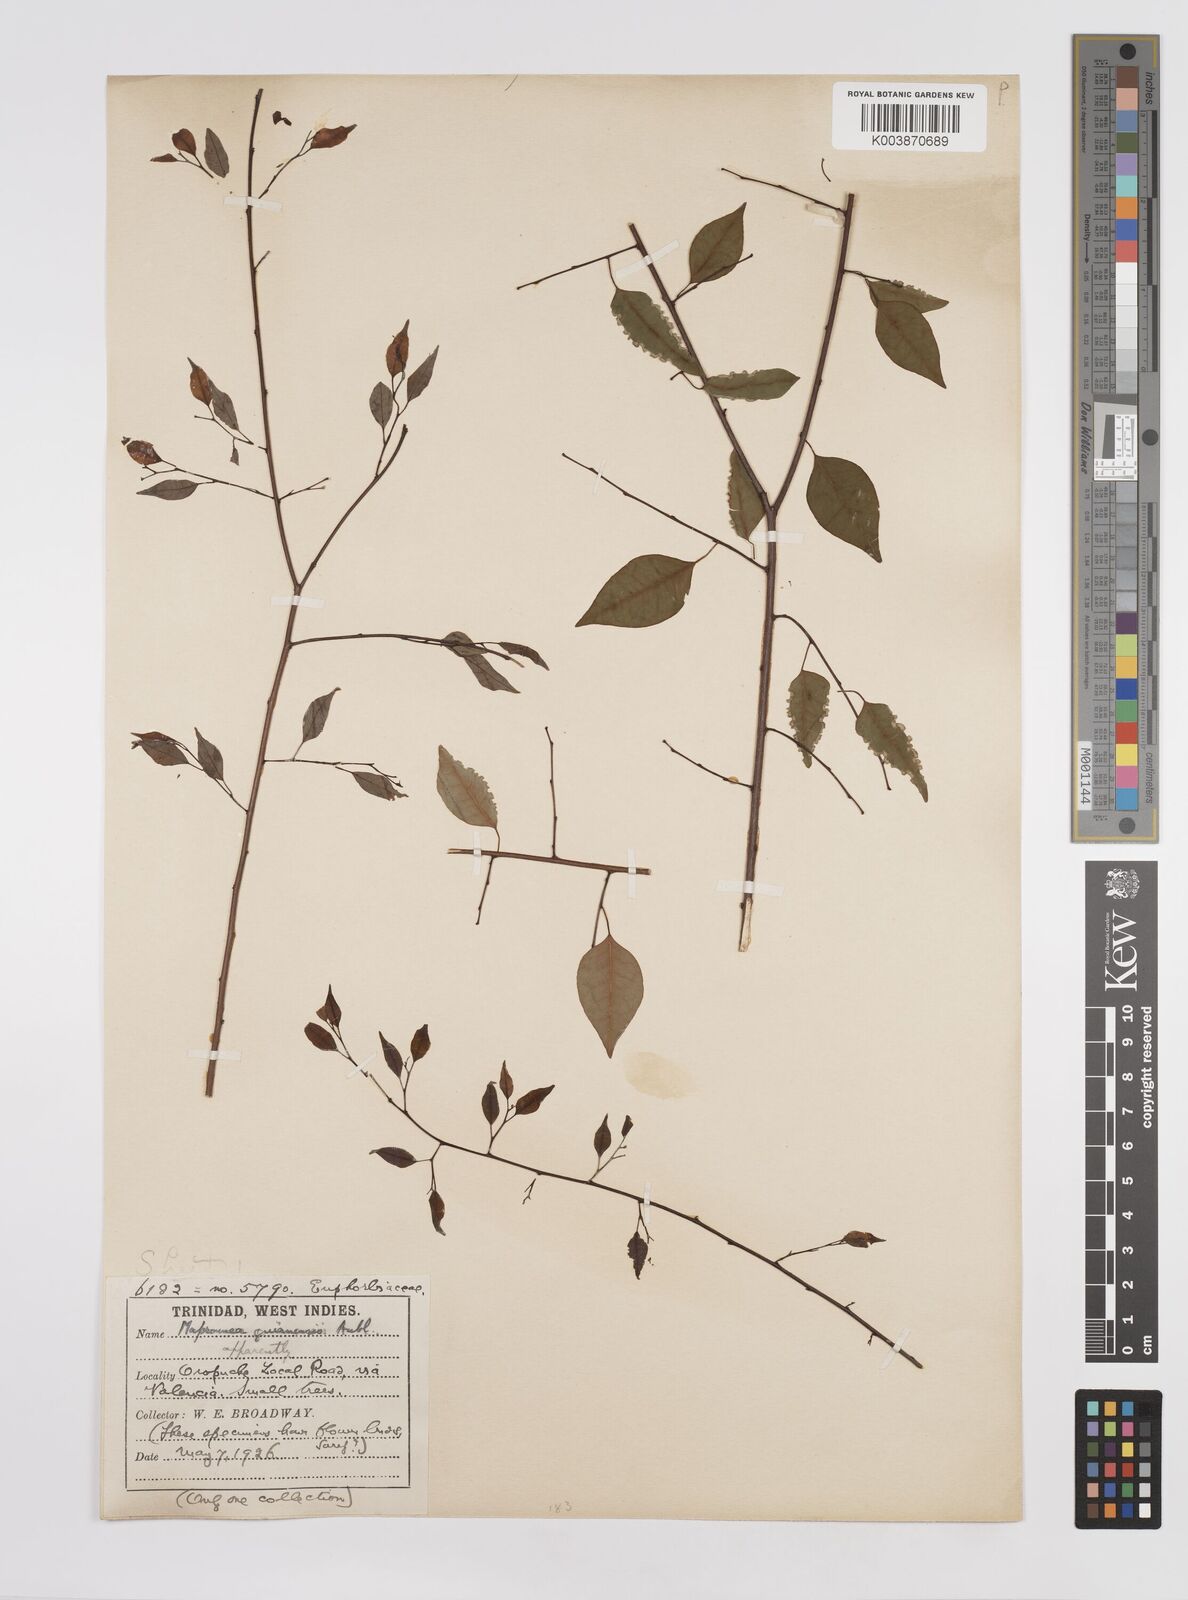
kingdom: Plantae
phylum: Tracheophyta
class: Magnoliopsida
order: Malpighiales
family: Euphorbiaceae
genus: Maprounea
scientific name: Maprounea guianensis
